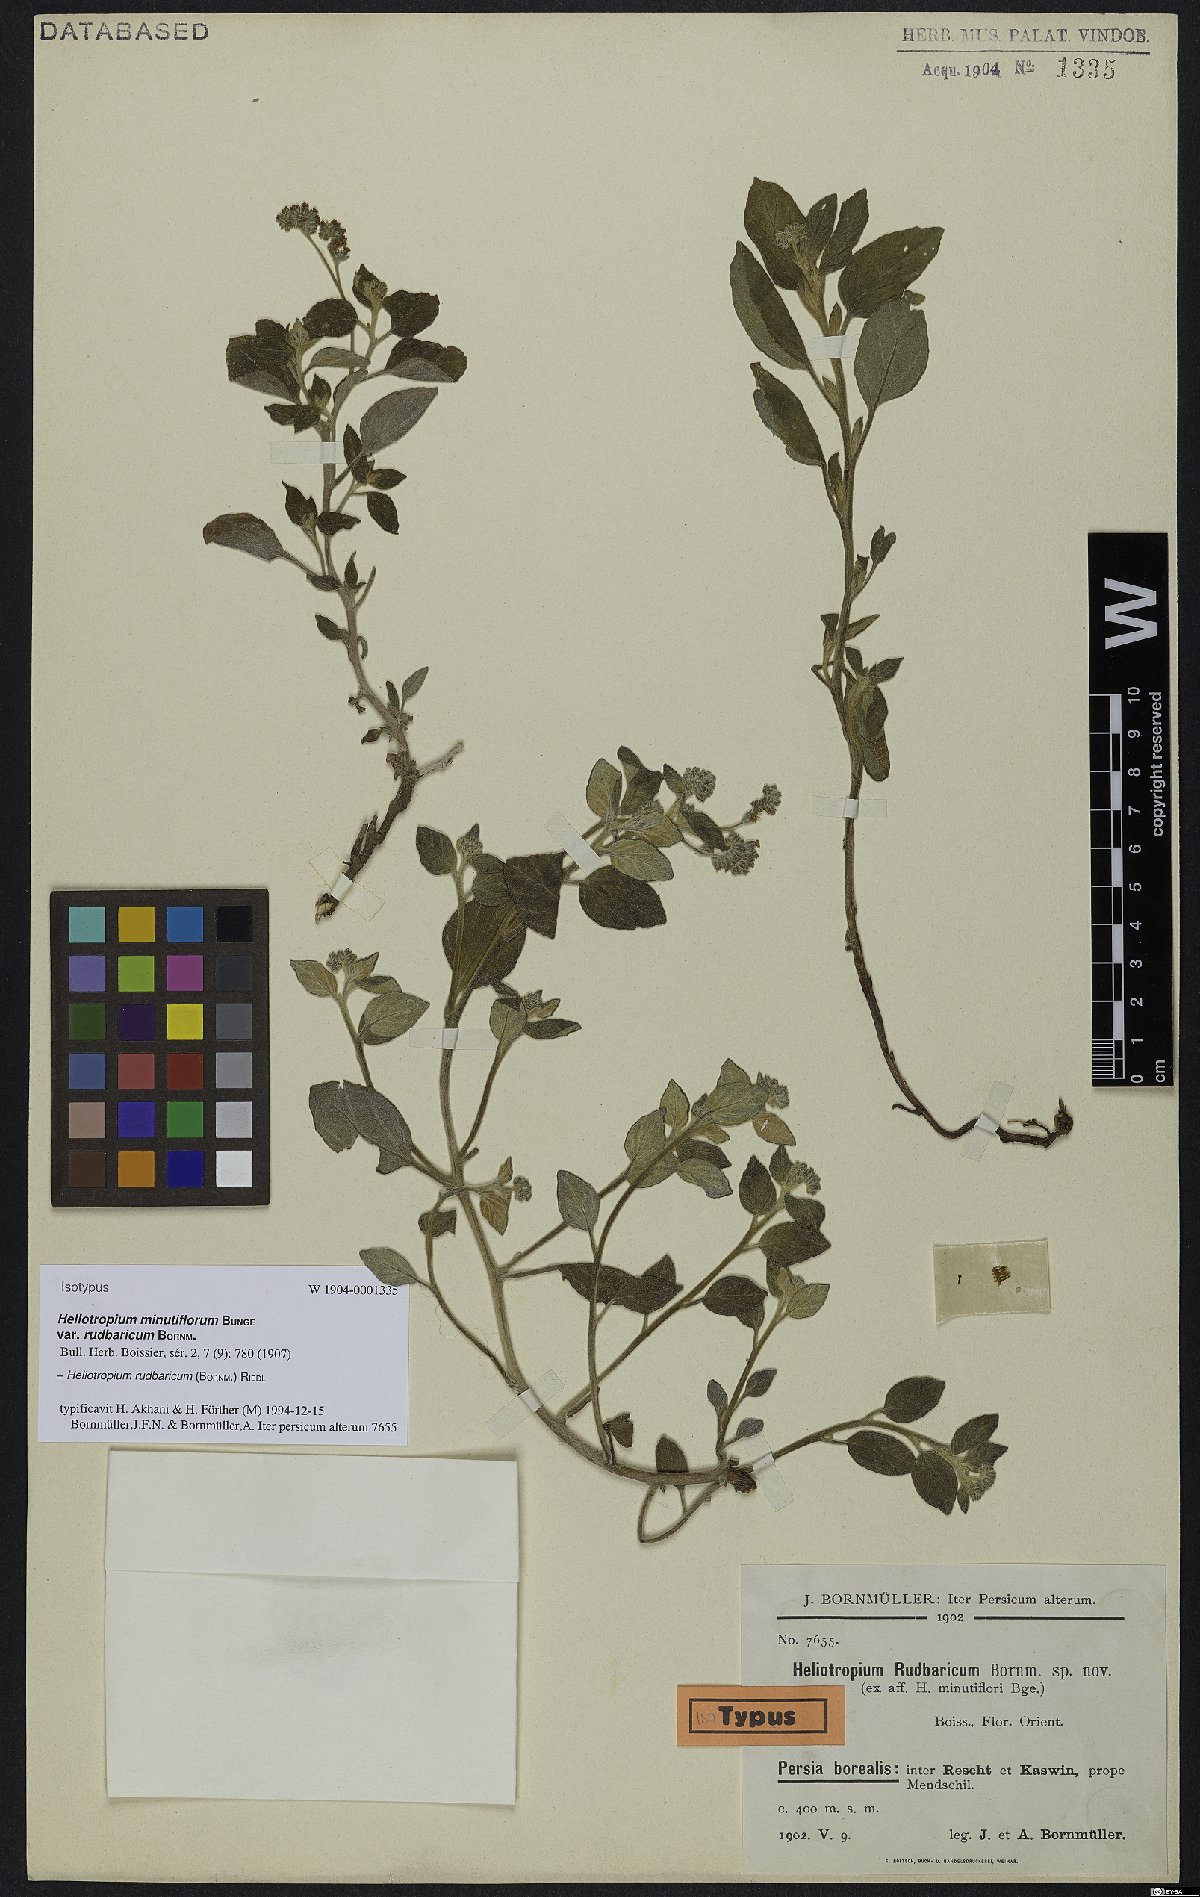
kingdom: Plantae
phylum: Tracheophyta
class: Magnoliopsida
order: Boraginales
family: Heliotropiaceae
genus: Heliotropium
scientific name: Heliotropium rudbaricum
